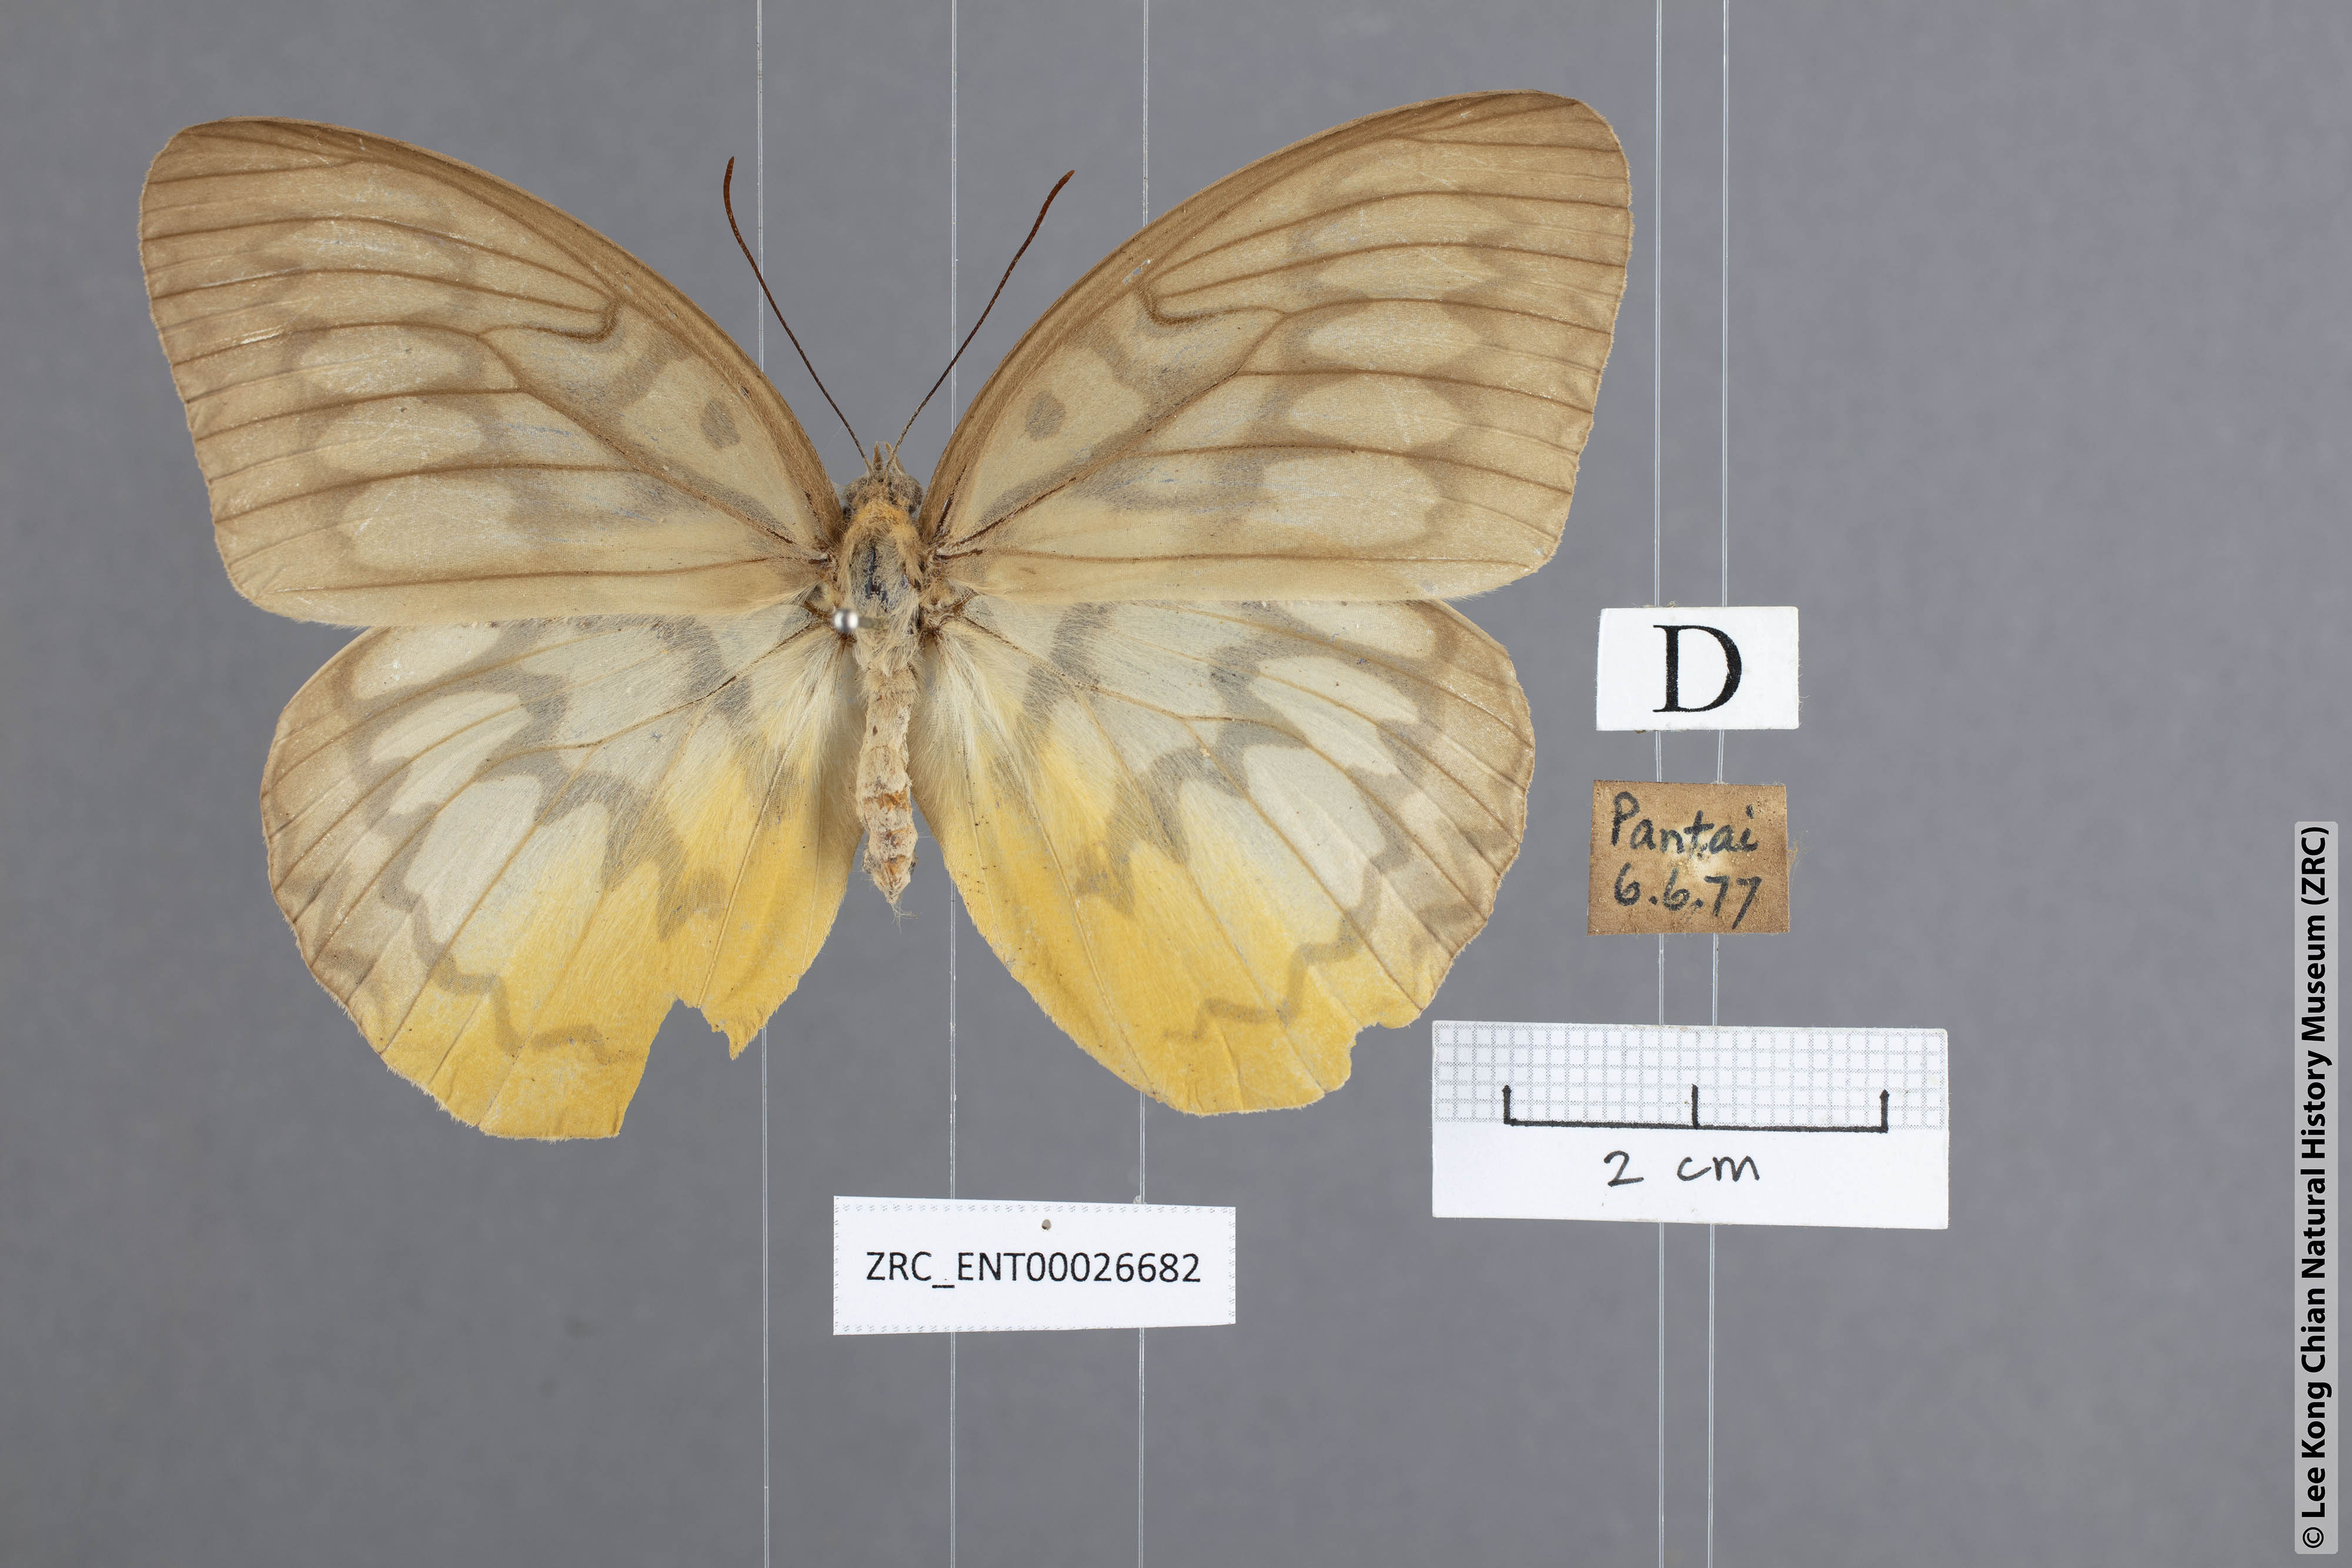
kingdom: Animalia
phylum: Arthropoda
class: Insecta
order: Lepidoptera
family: Nymphalidae
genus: Faunis
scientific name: Faunis Melanocyma faunula
